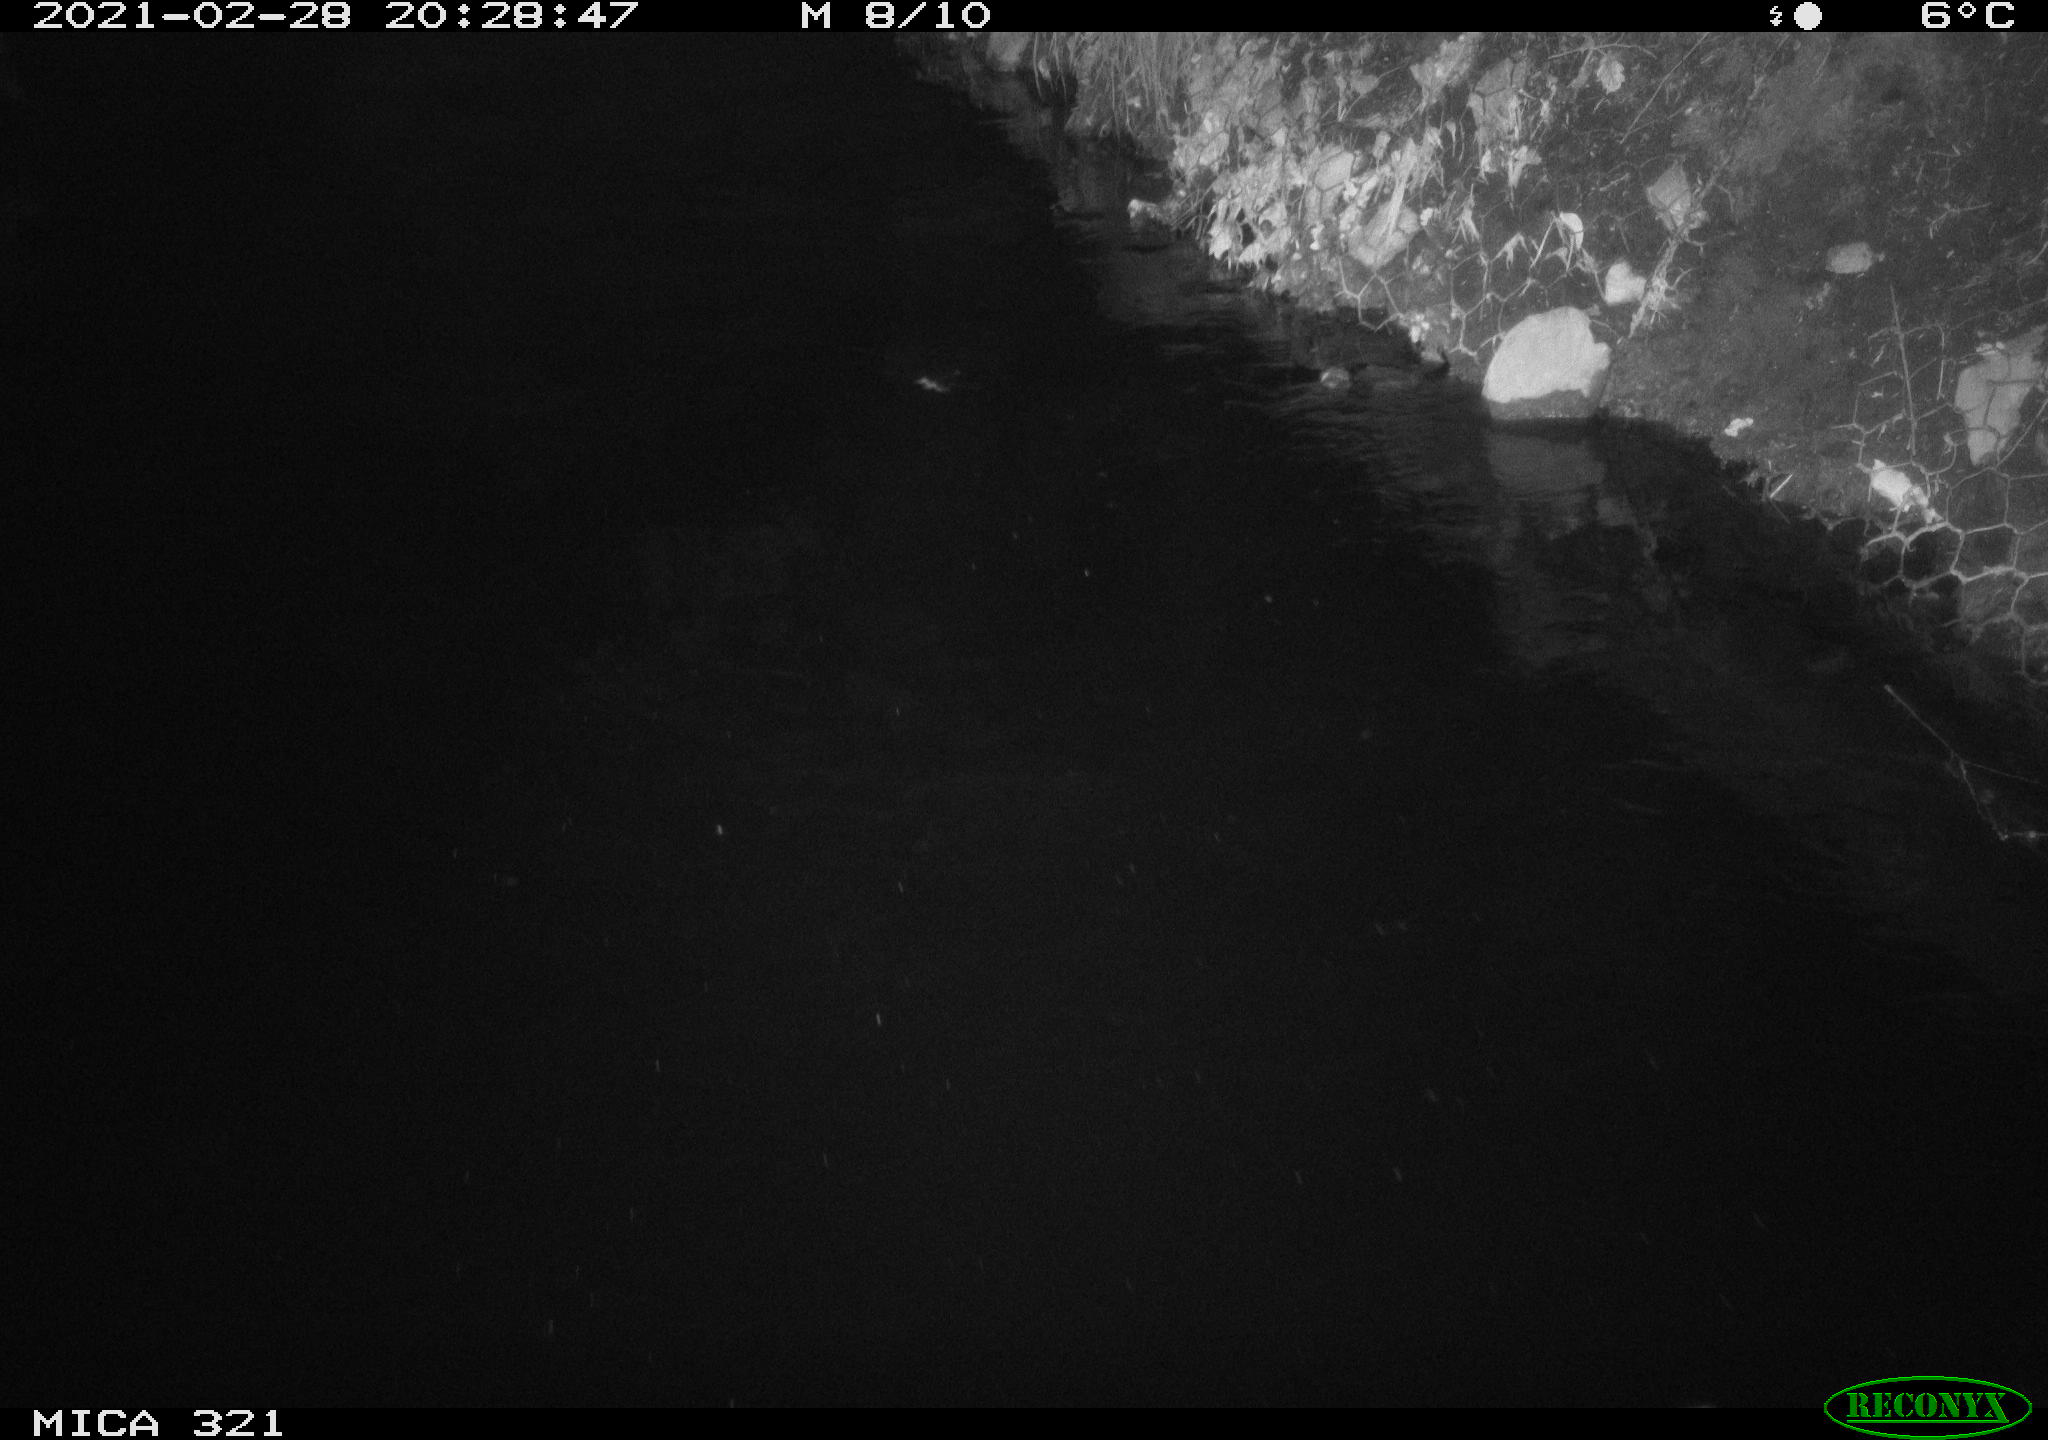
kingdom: Animalia
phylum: Chordata
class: Mammalia
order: Rodentia
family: Muridae
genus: Rattus
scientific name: Rattus norvegicus
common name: Brown rat
